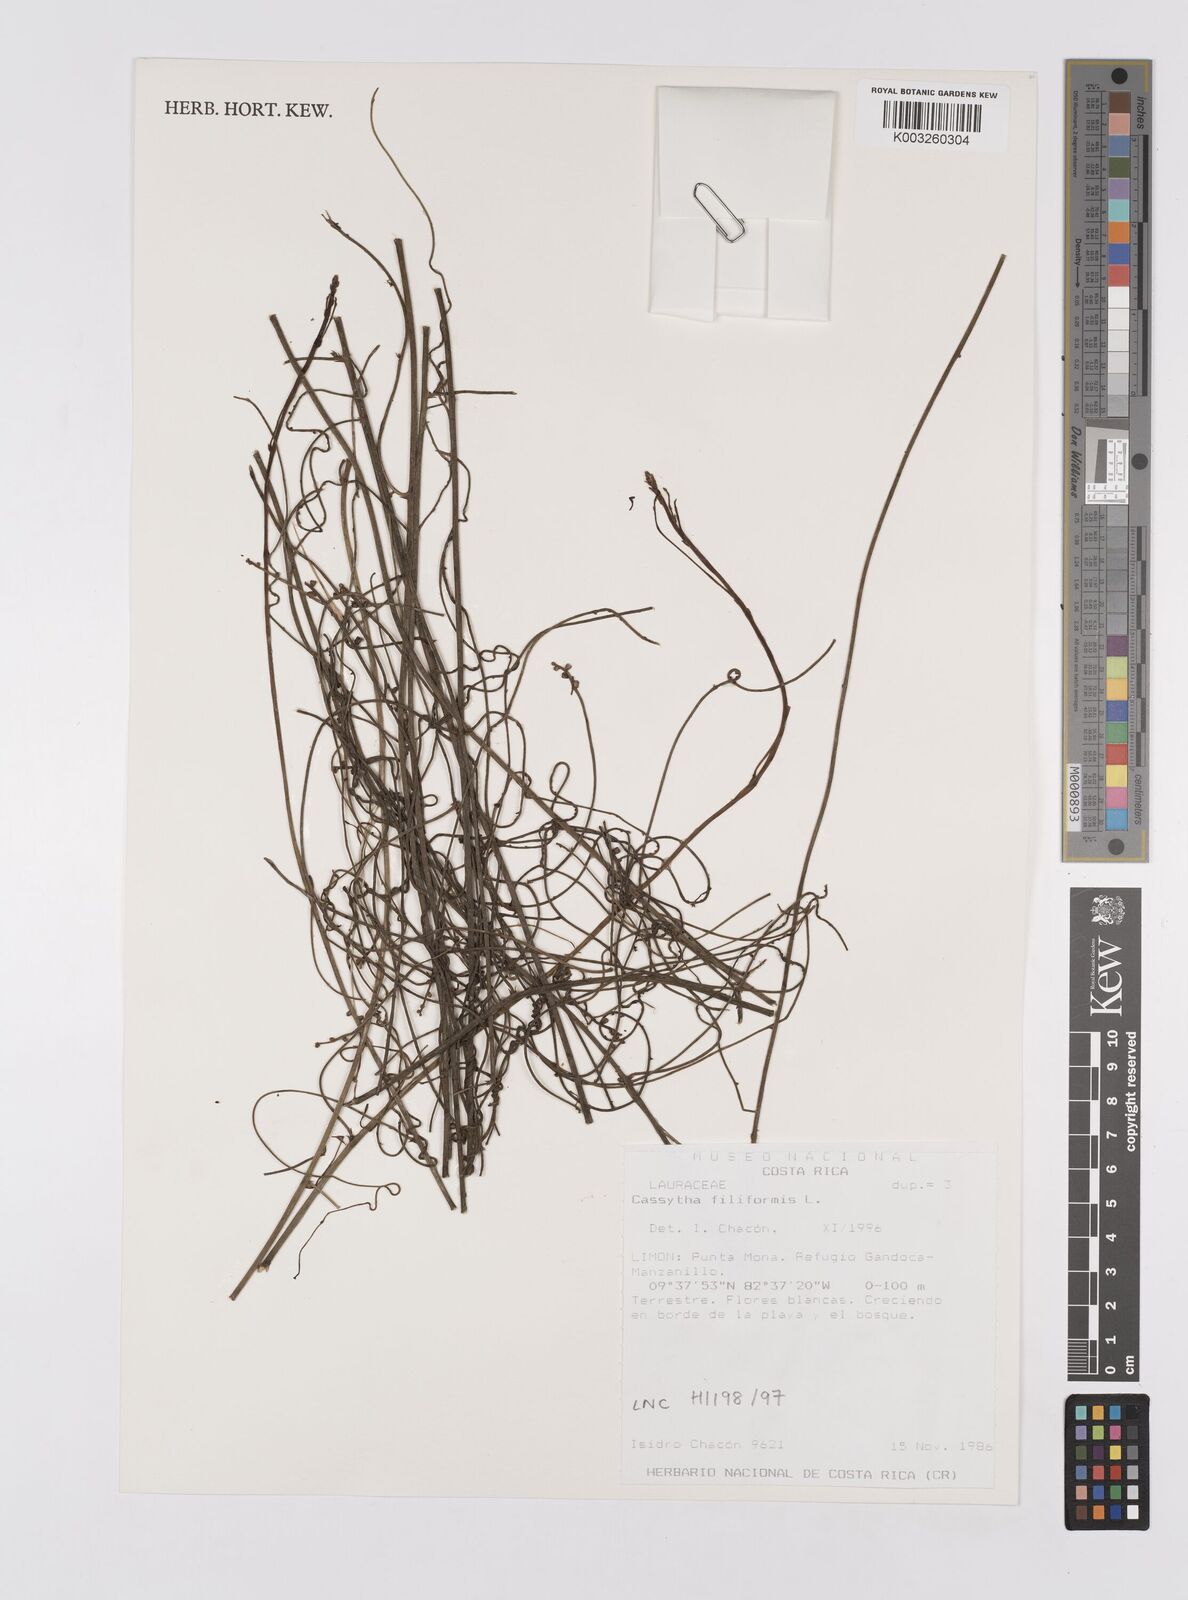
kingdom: Plantae
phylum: Tracheophyta
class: Magnoliopsida
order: Laurales
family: Lauraceae
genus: Cassytha
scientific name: Cassytha filiformis
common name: Dodder-laurel
